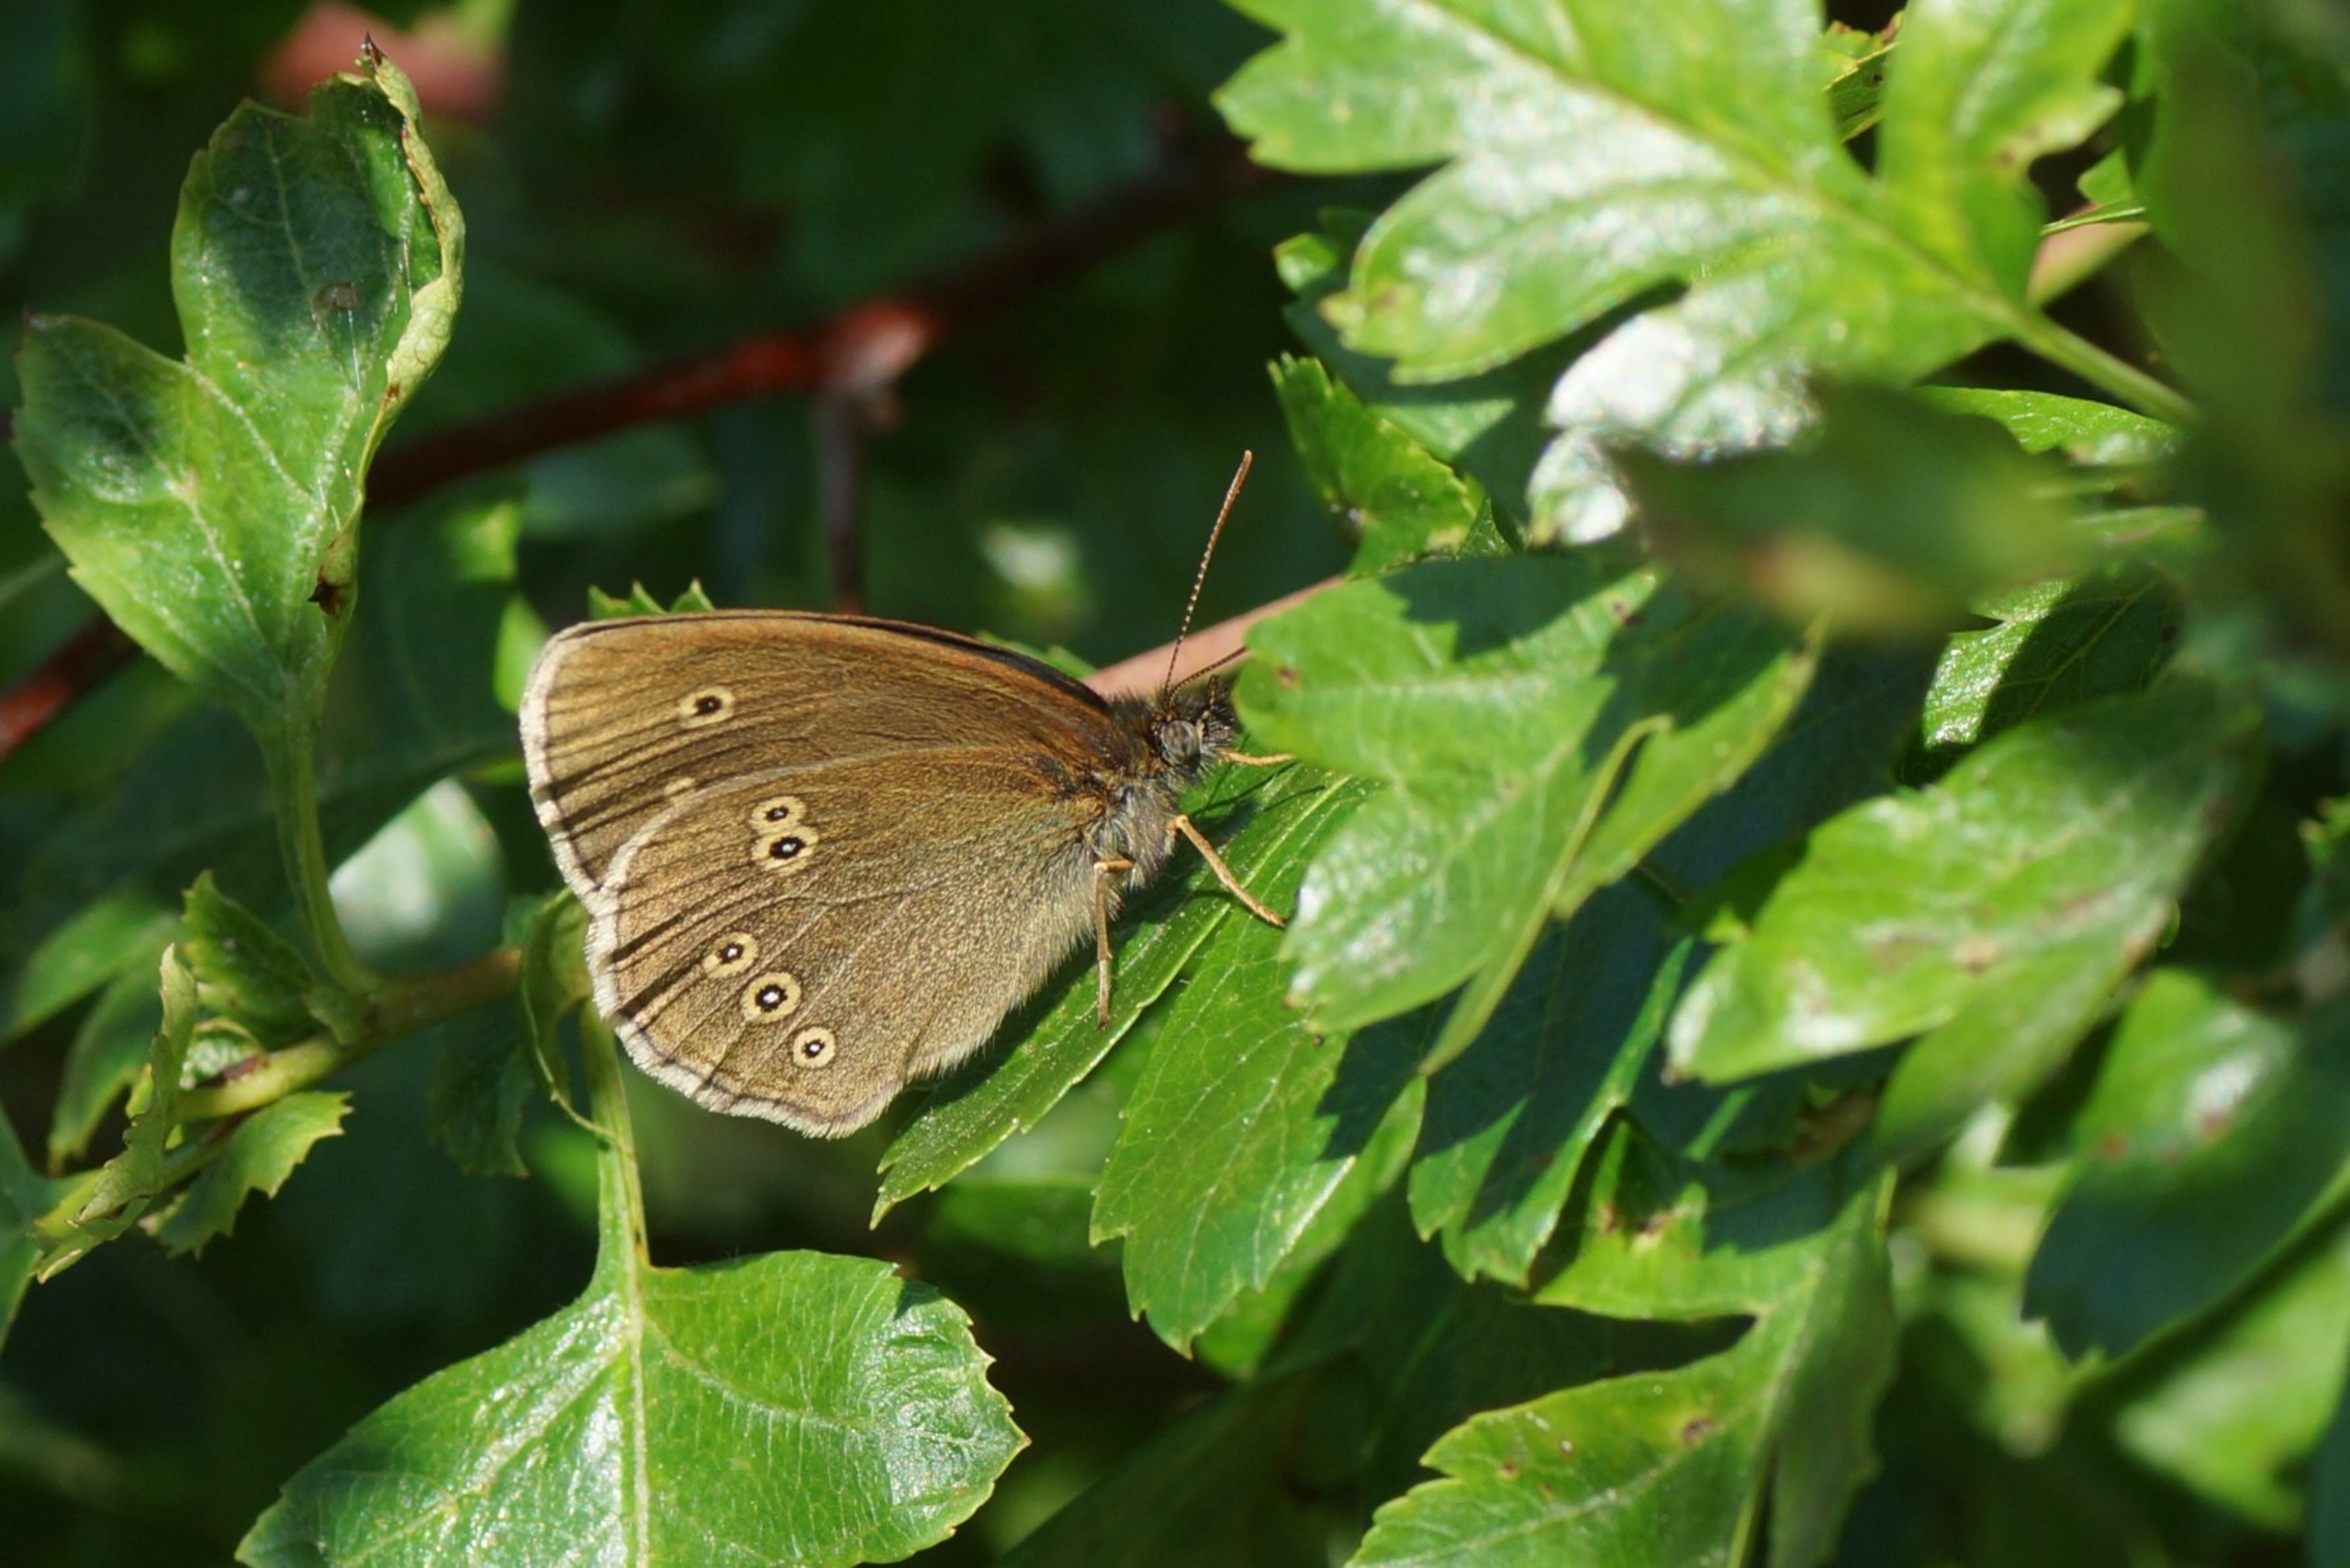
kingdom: Animalia
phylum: Arthropoda
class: Insecta
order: Lepidoptera
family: Nymphalidae
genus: Aphantopus
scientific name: Aphantopus hyperantus
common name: Engrandøje
